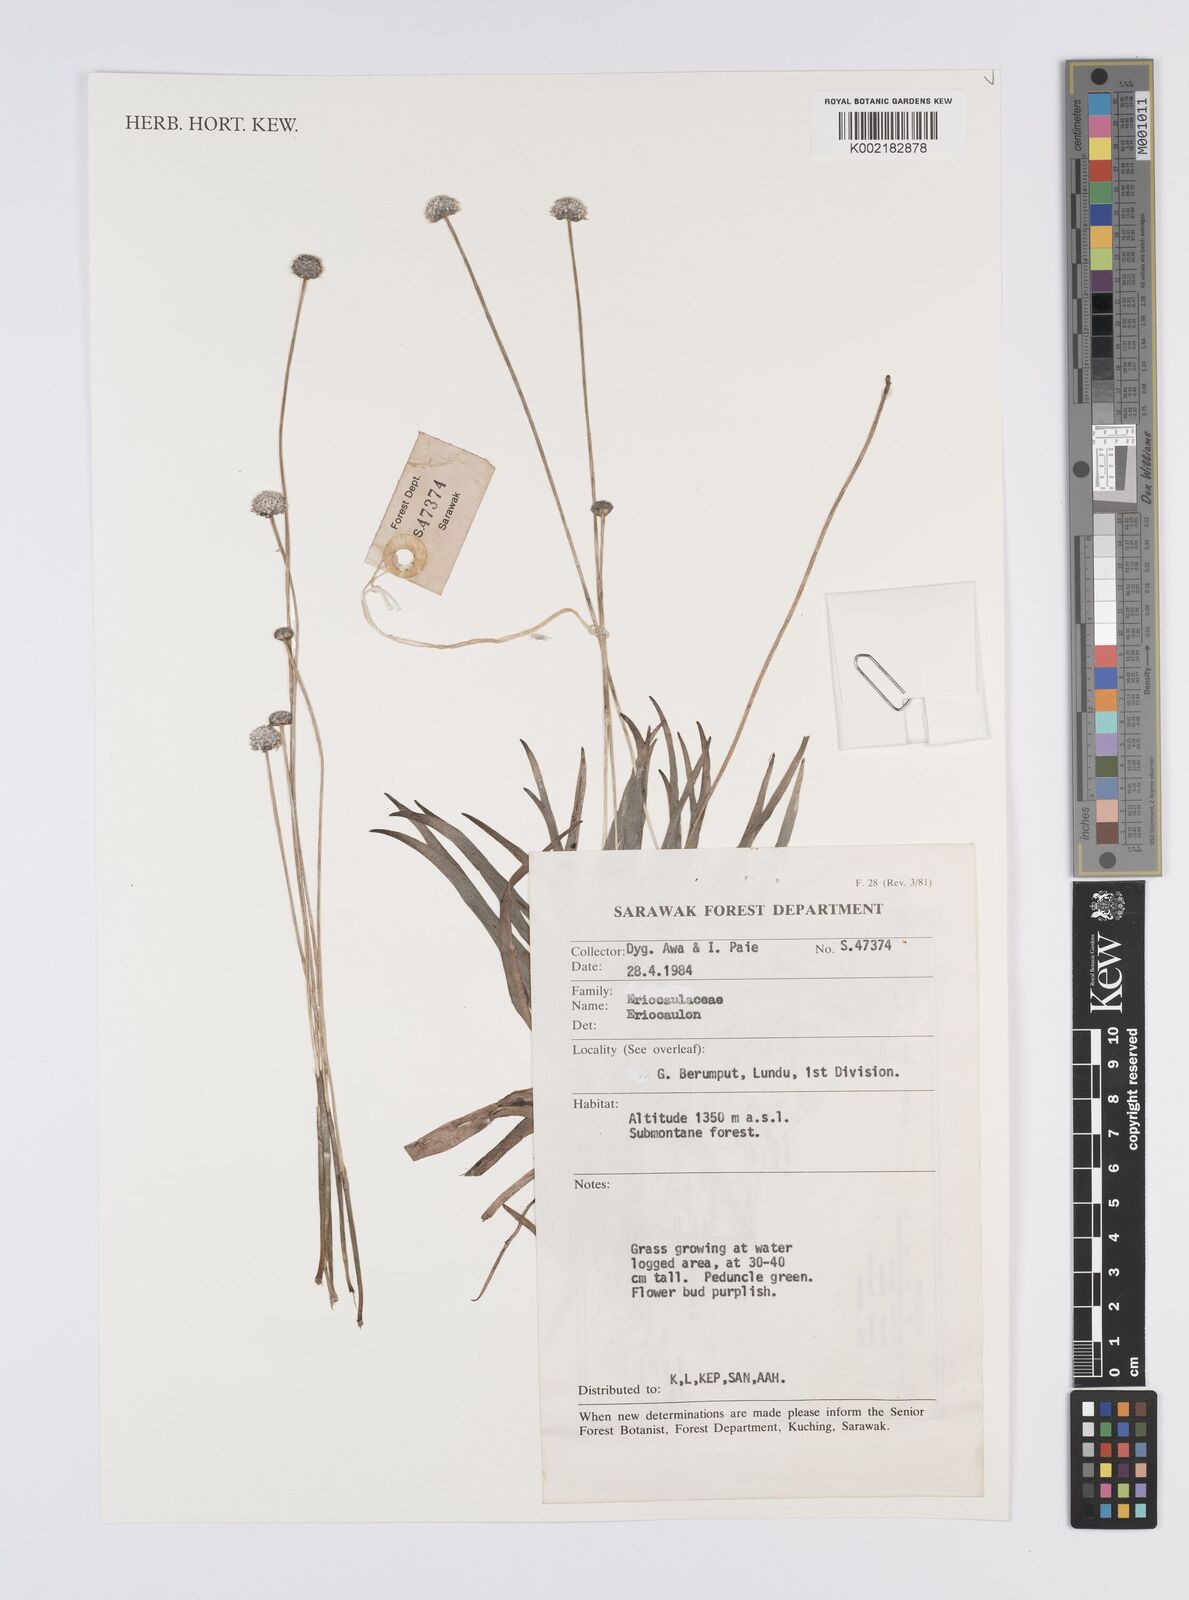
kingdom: Plantae
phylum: Tracheophyta
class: Liliopsida
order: Poales
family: Eriocaulaceae
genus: Eriocaulon
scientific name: Eriocaulon
